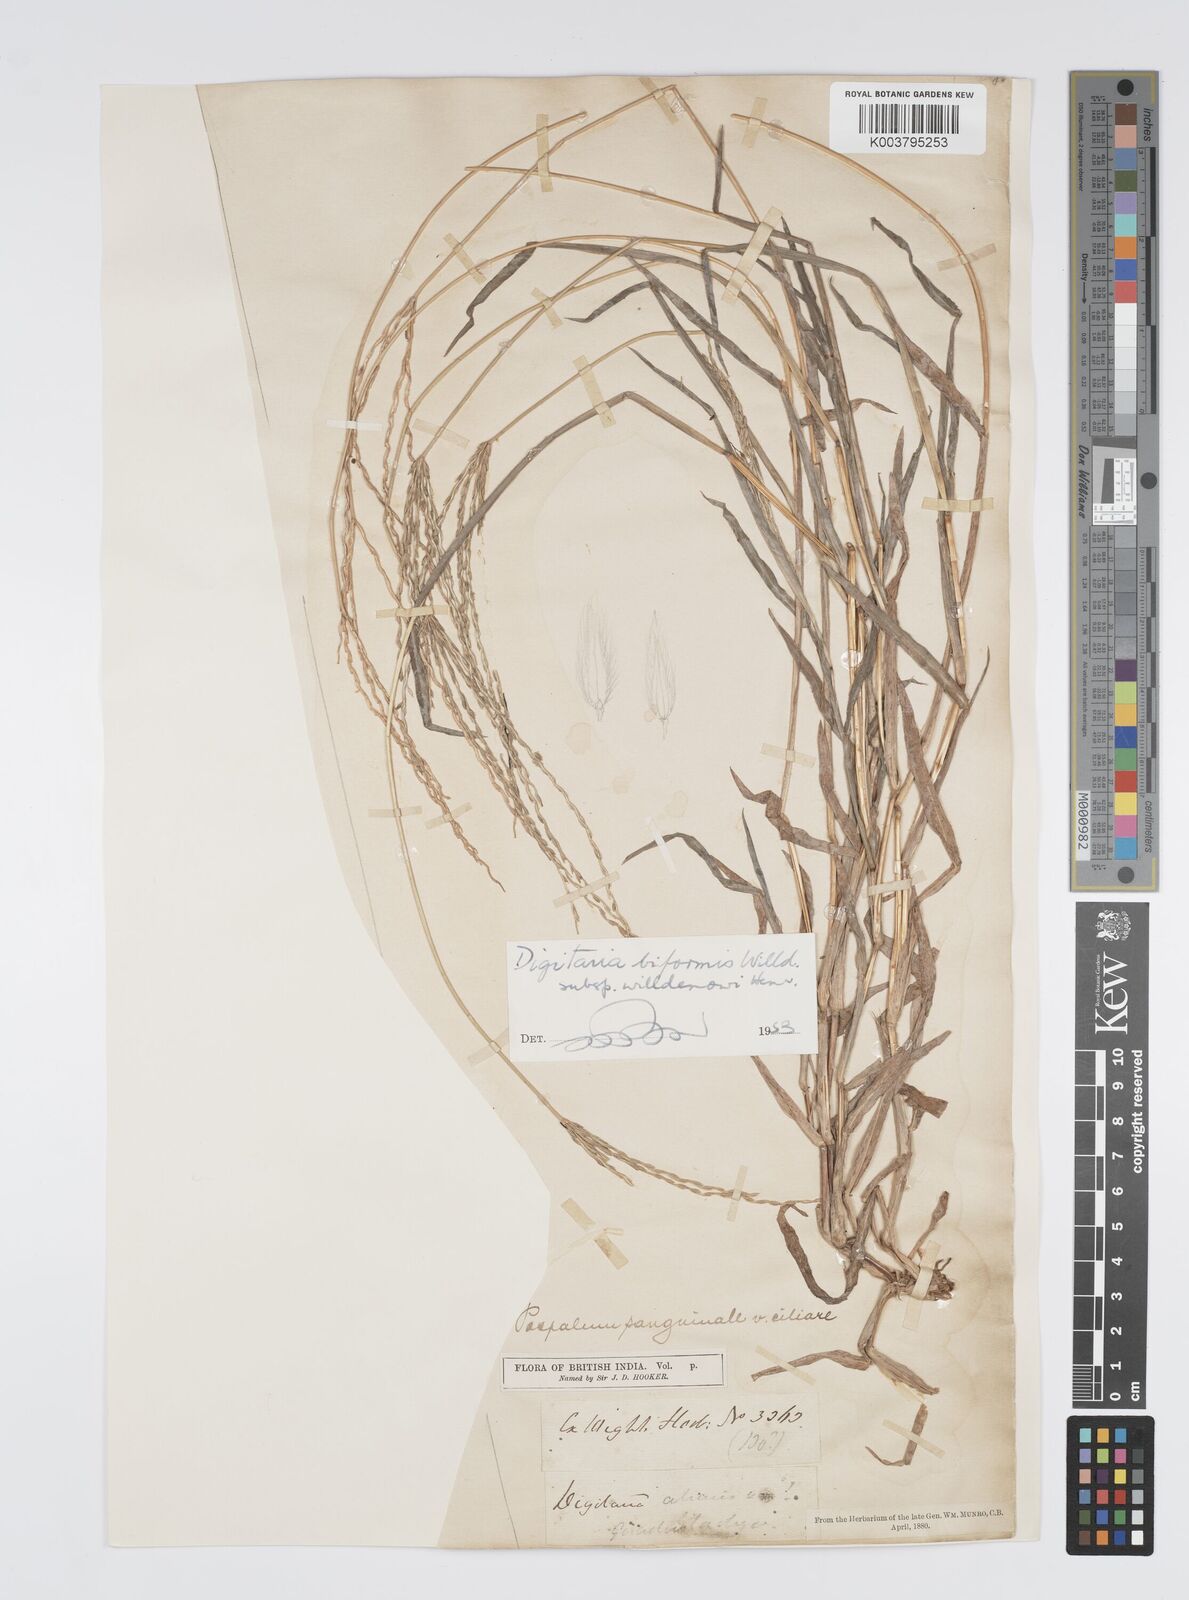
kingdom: Plantae
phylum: Tracheophyta
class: Liliopsida
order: Poales
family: Poaceae
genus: Digitaria
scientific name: Digitaria ciliaris
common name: Tropical finger-grass
